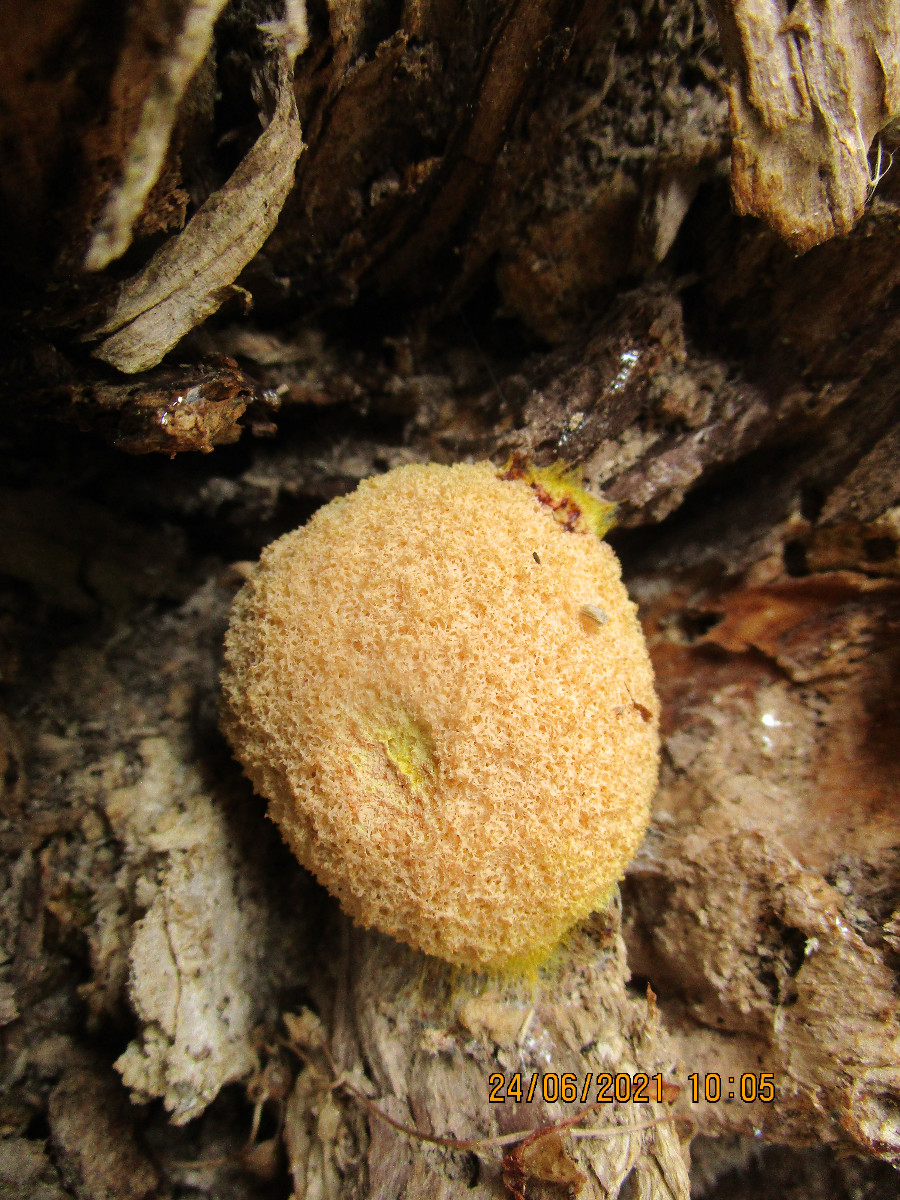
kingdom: Protozoa
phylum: Mycetozoa
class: Myxomycetes
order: Physarales
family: Physaraceae
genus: Fuligo
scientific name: Fuligo septica
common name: Dog vomit slime mold
